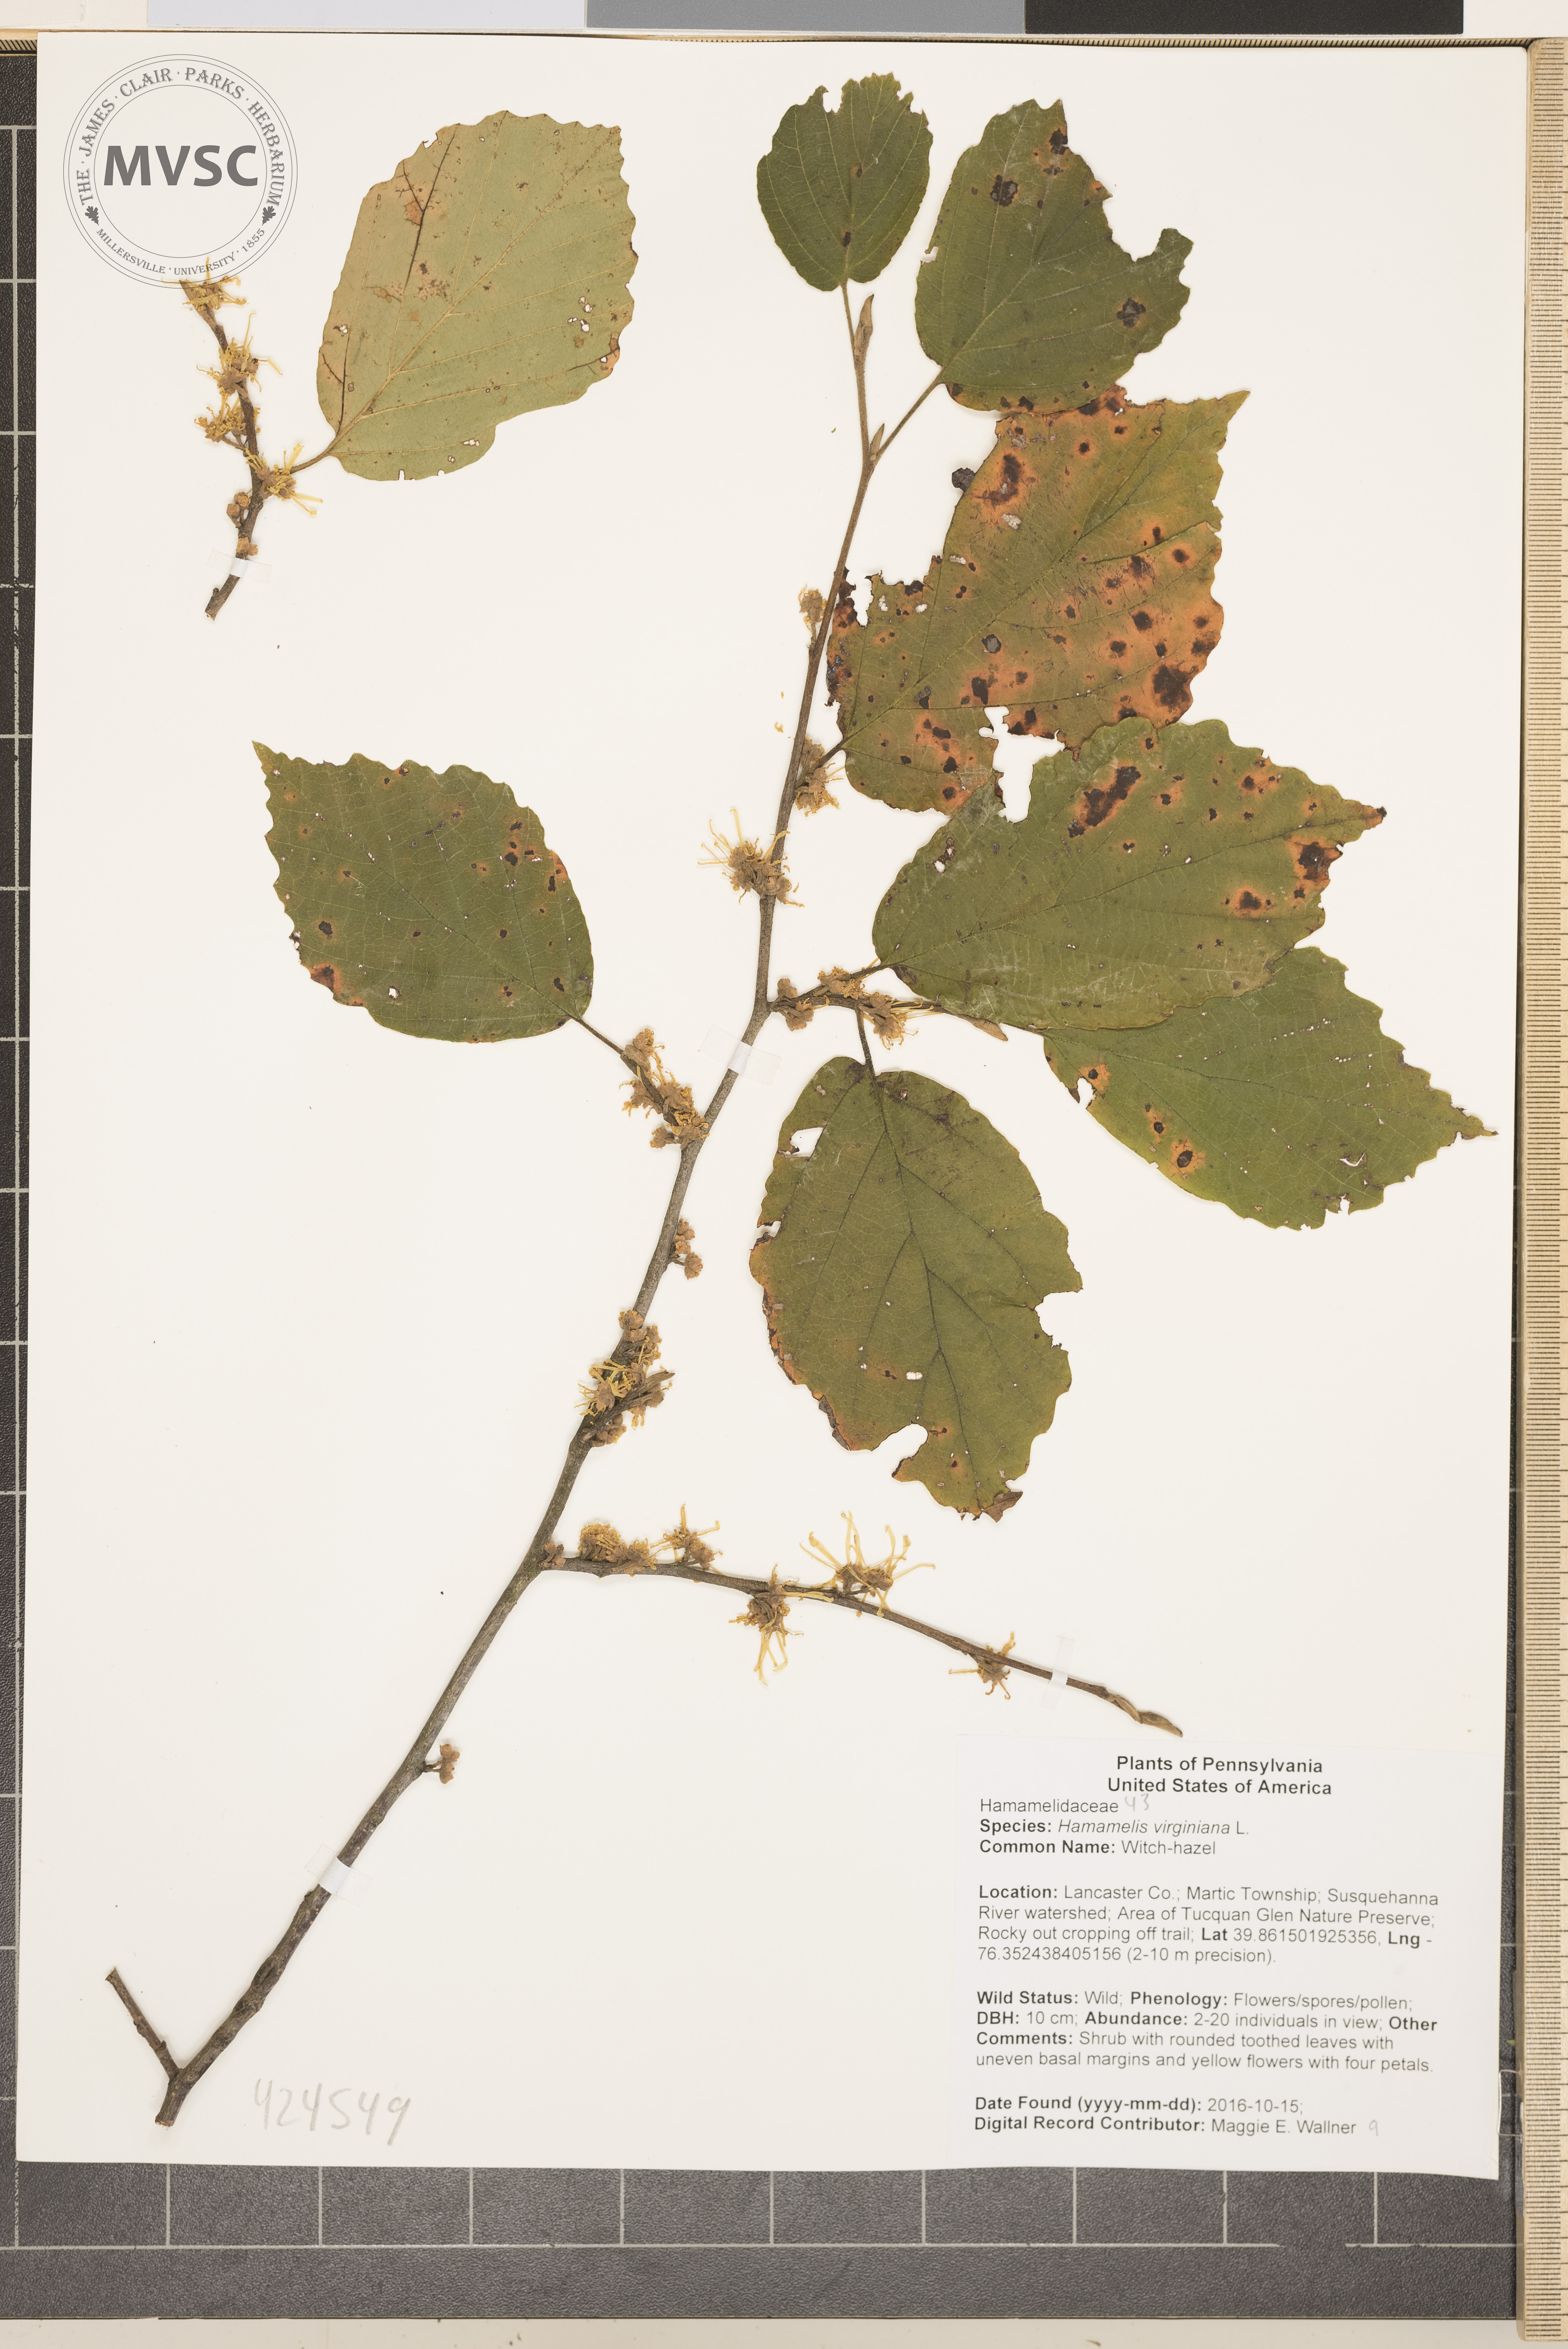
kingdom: Plantae
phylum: Tracheophyta
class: Magnoliopsida
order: Saxifragales
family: Hamamelidaceae
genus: Hamamelis
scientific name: Hamamelis virginiana
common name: Witch-hazel
